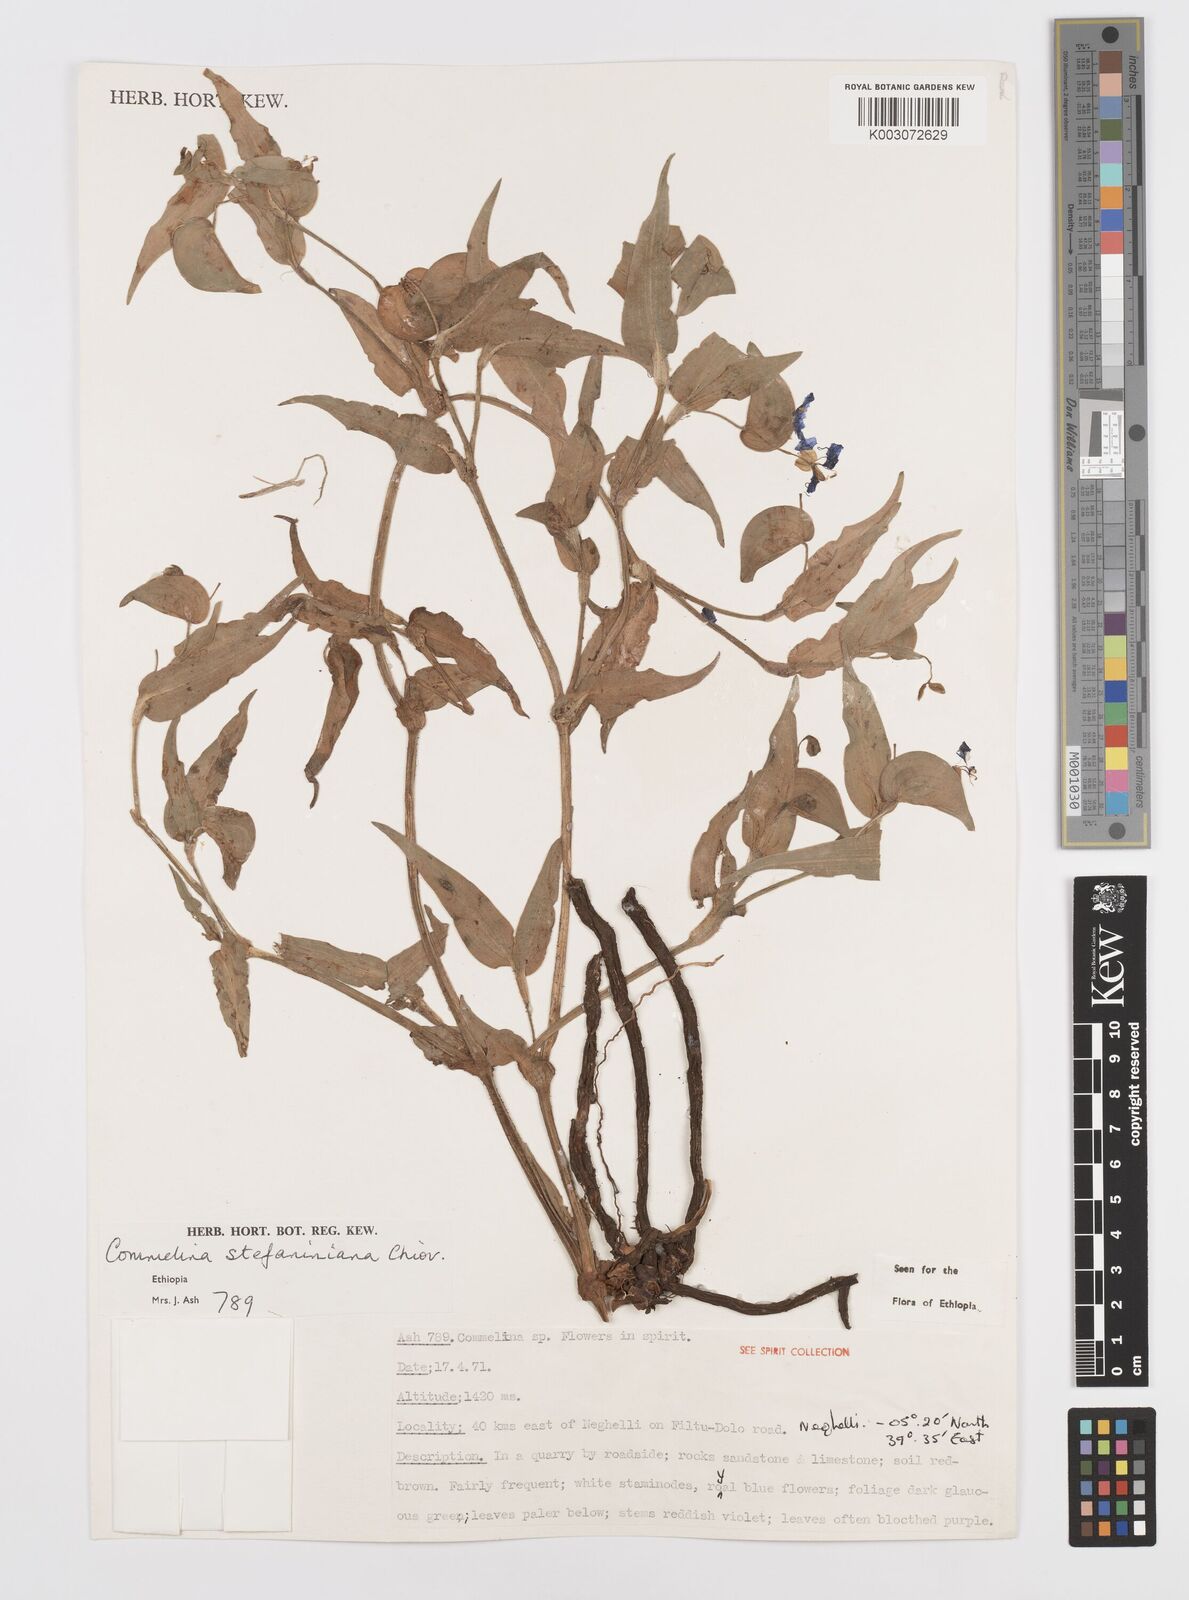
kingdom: Plantae
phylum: Tracheophyta
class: Liliopsida
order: Commelinales
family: Commelinaceae
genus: Commelina
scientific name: Commelina stefaniniana
